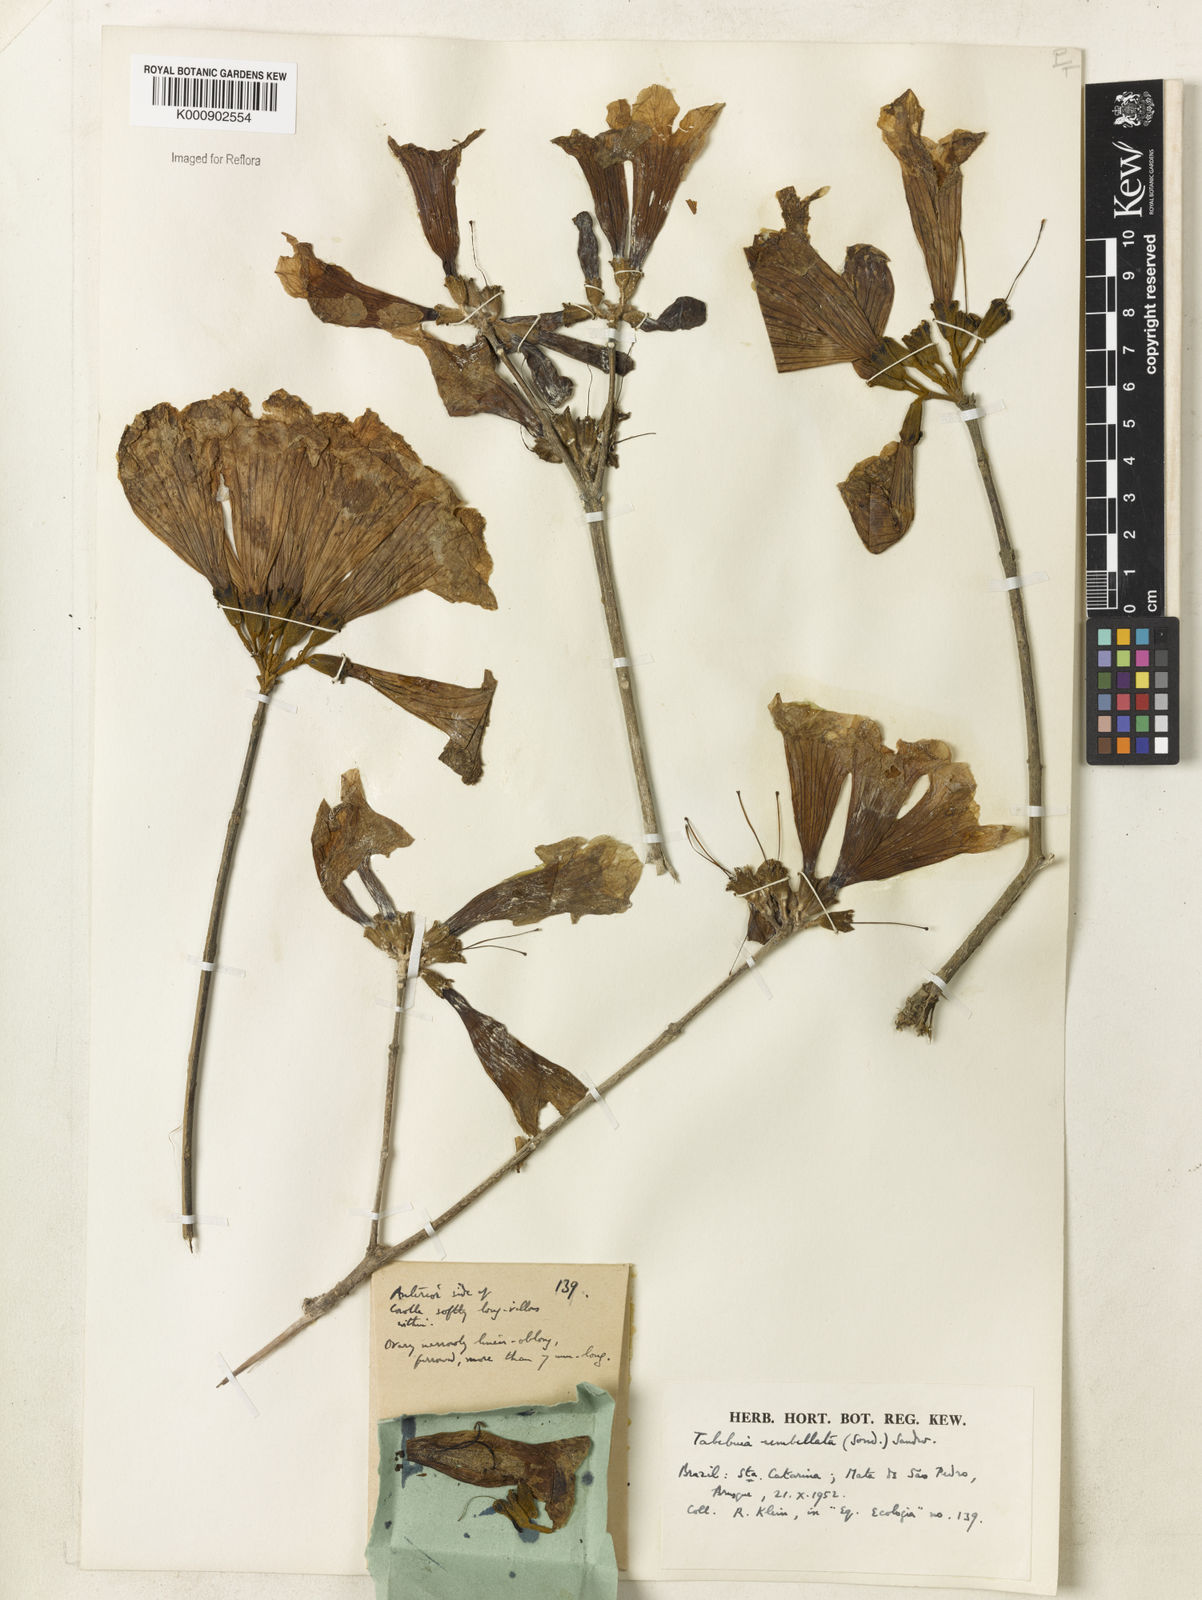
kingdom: Plantae
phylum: Tracheophyta
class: Magnoliopsida
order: Lamiales
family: Bignoniaceae
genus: Handroanthus
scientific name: Handroanthus umbellatus
